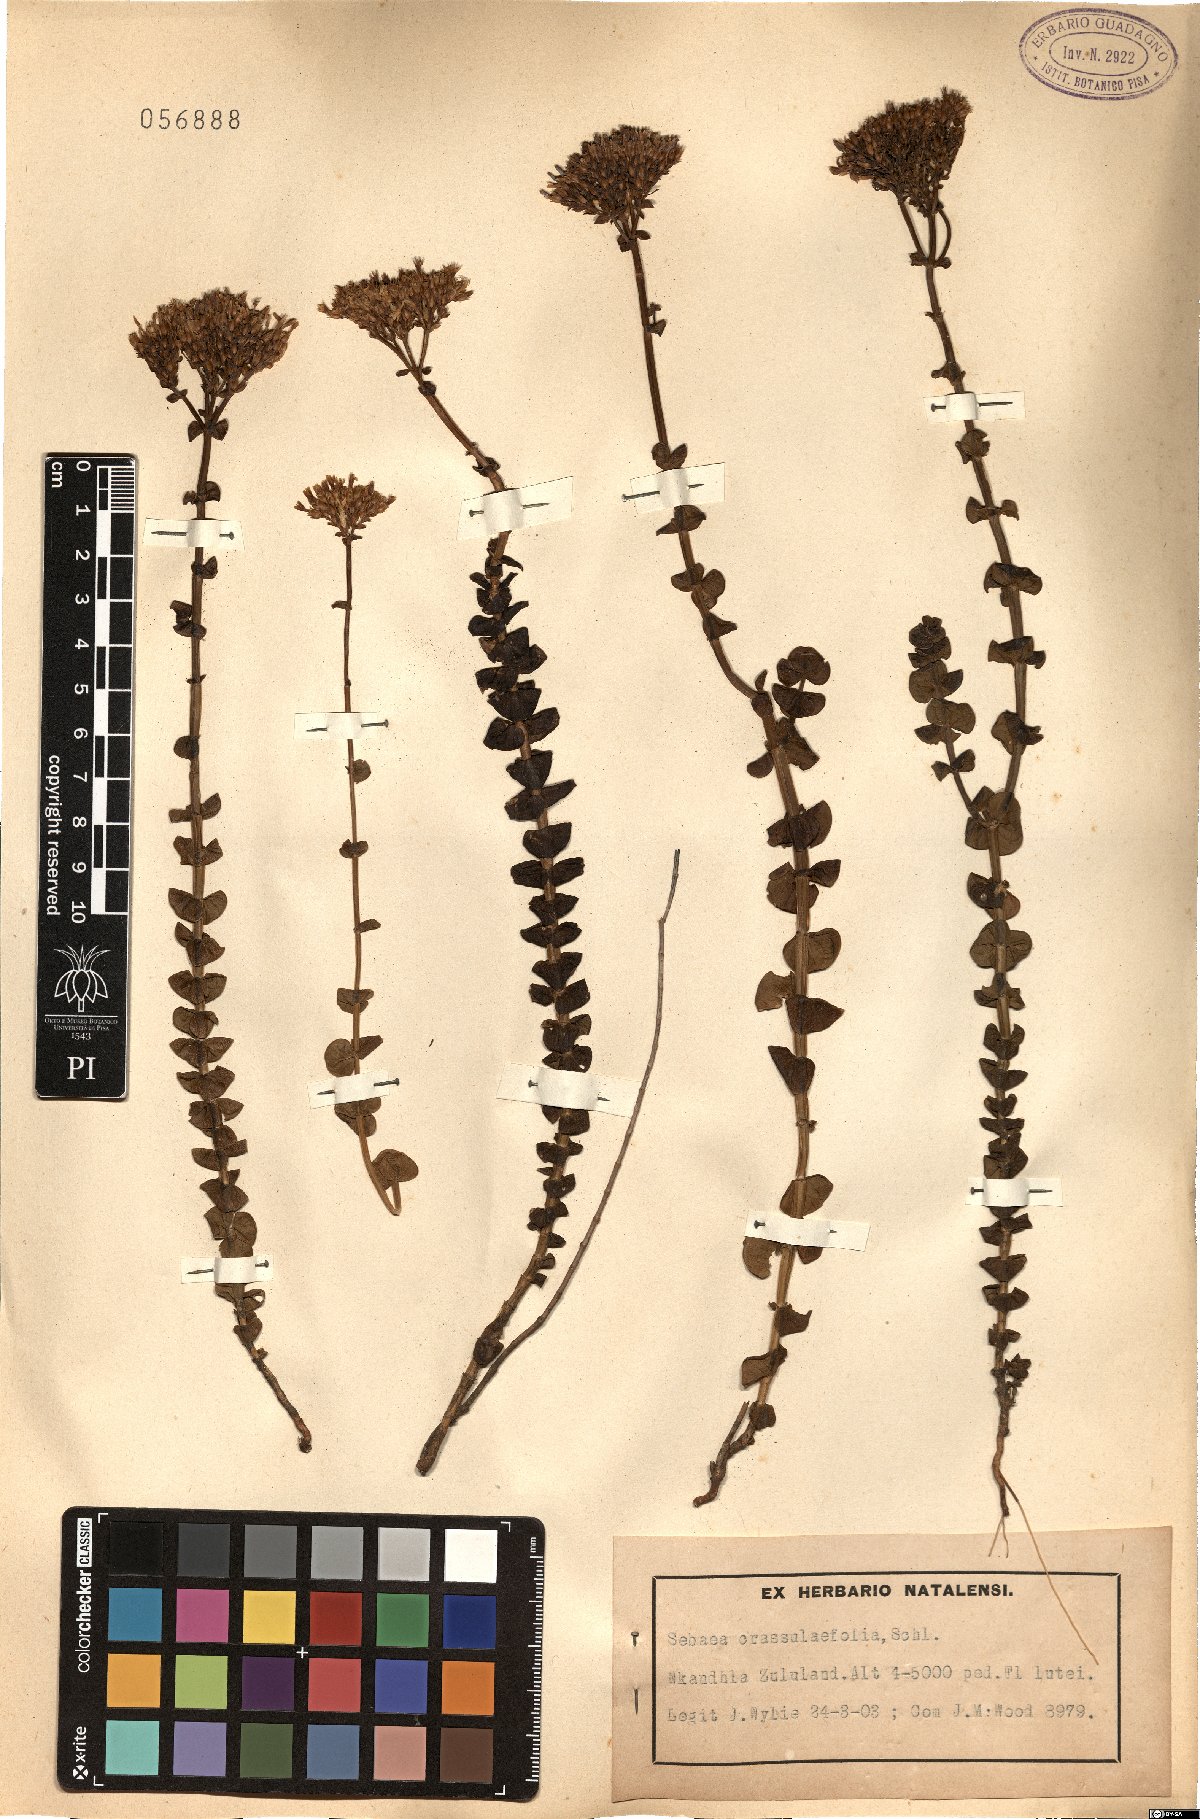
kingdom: Plantae
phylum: Tracheophyta
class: Magnoliopsida
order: Gentianales
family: Gentianaceae
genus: Sebaea
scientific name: Sebaea crassulifolia
